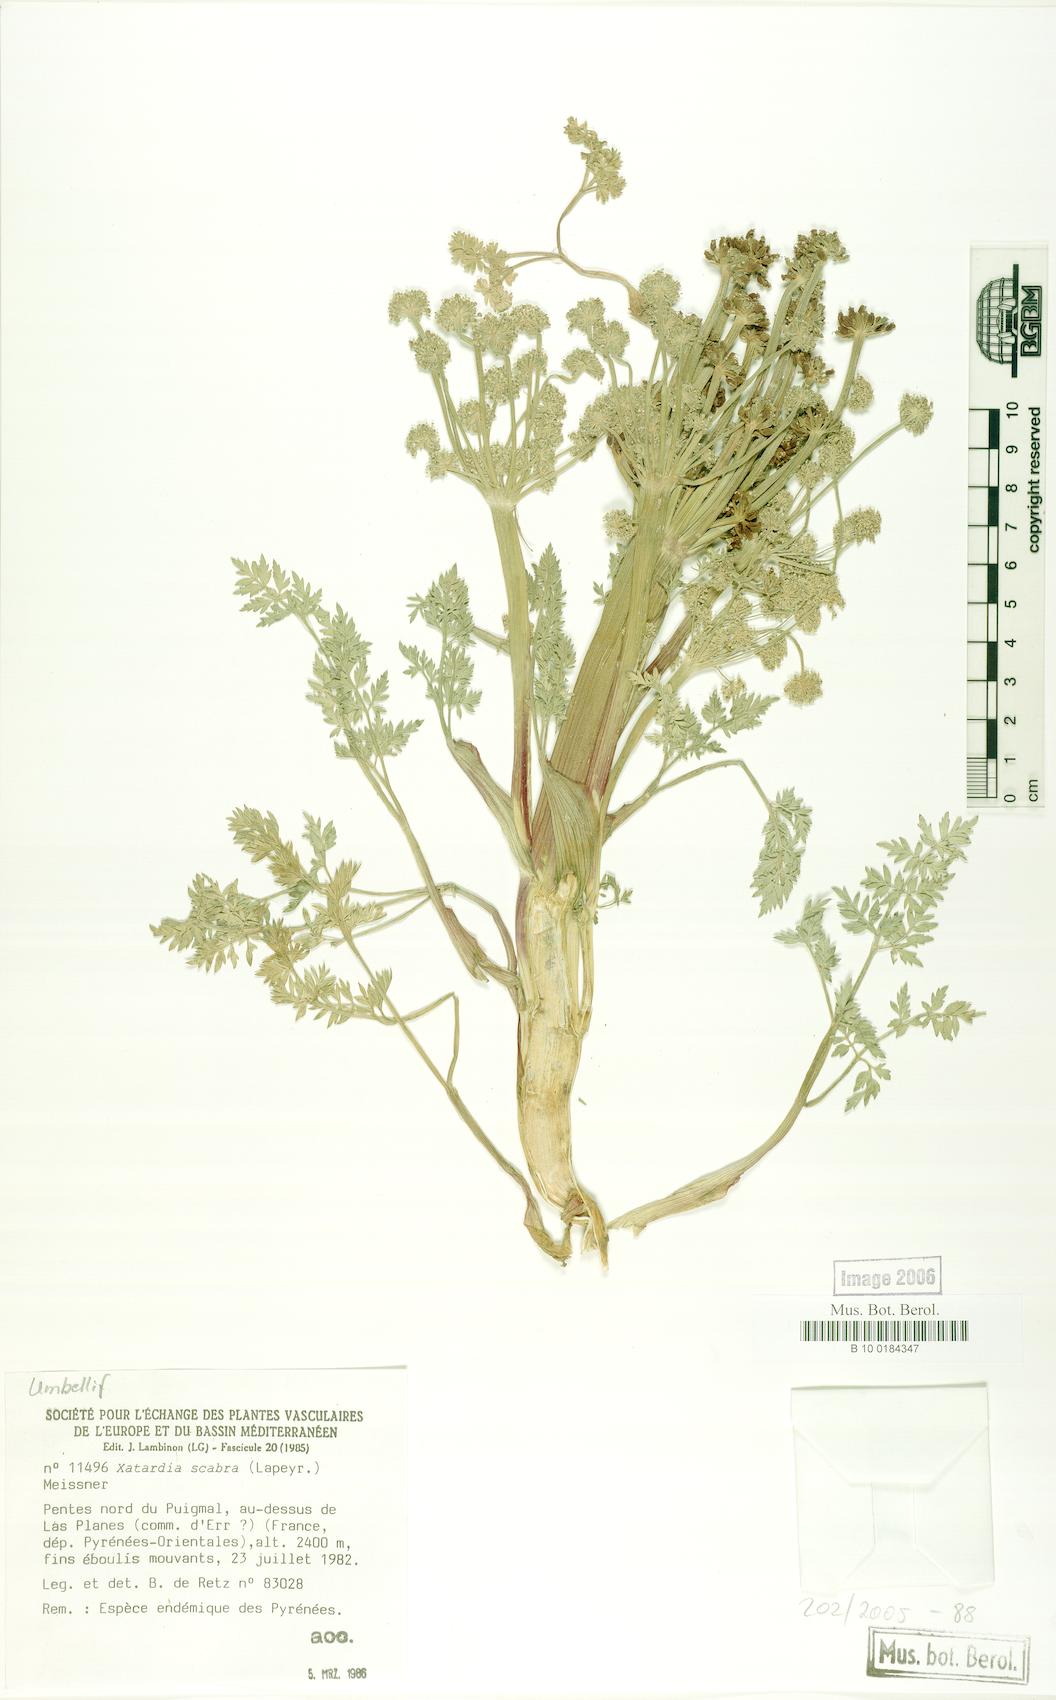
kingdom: Plantae
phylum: Tracheophyta
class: Magnoliopsida
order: Apiales
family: Apiaceae
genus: Xatardia
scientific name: Xatardia scabra
